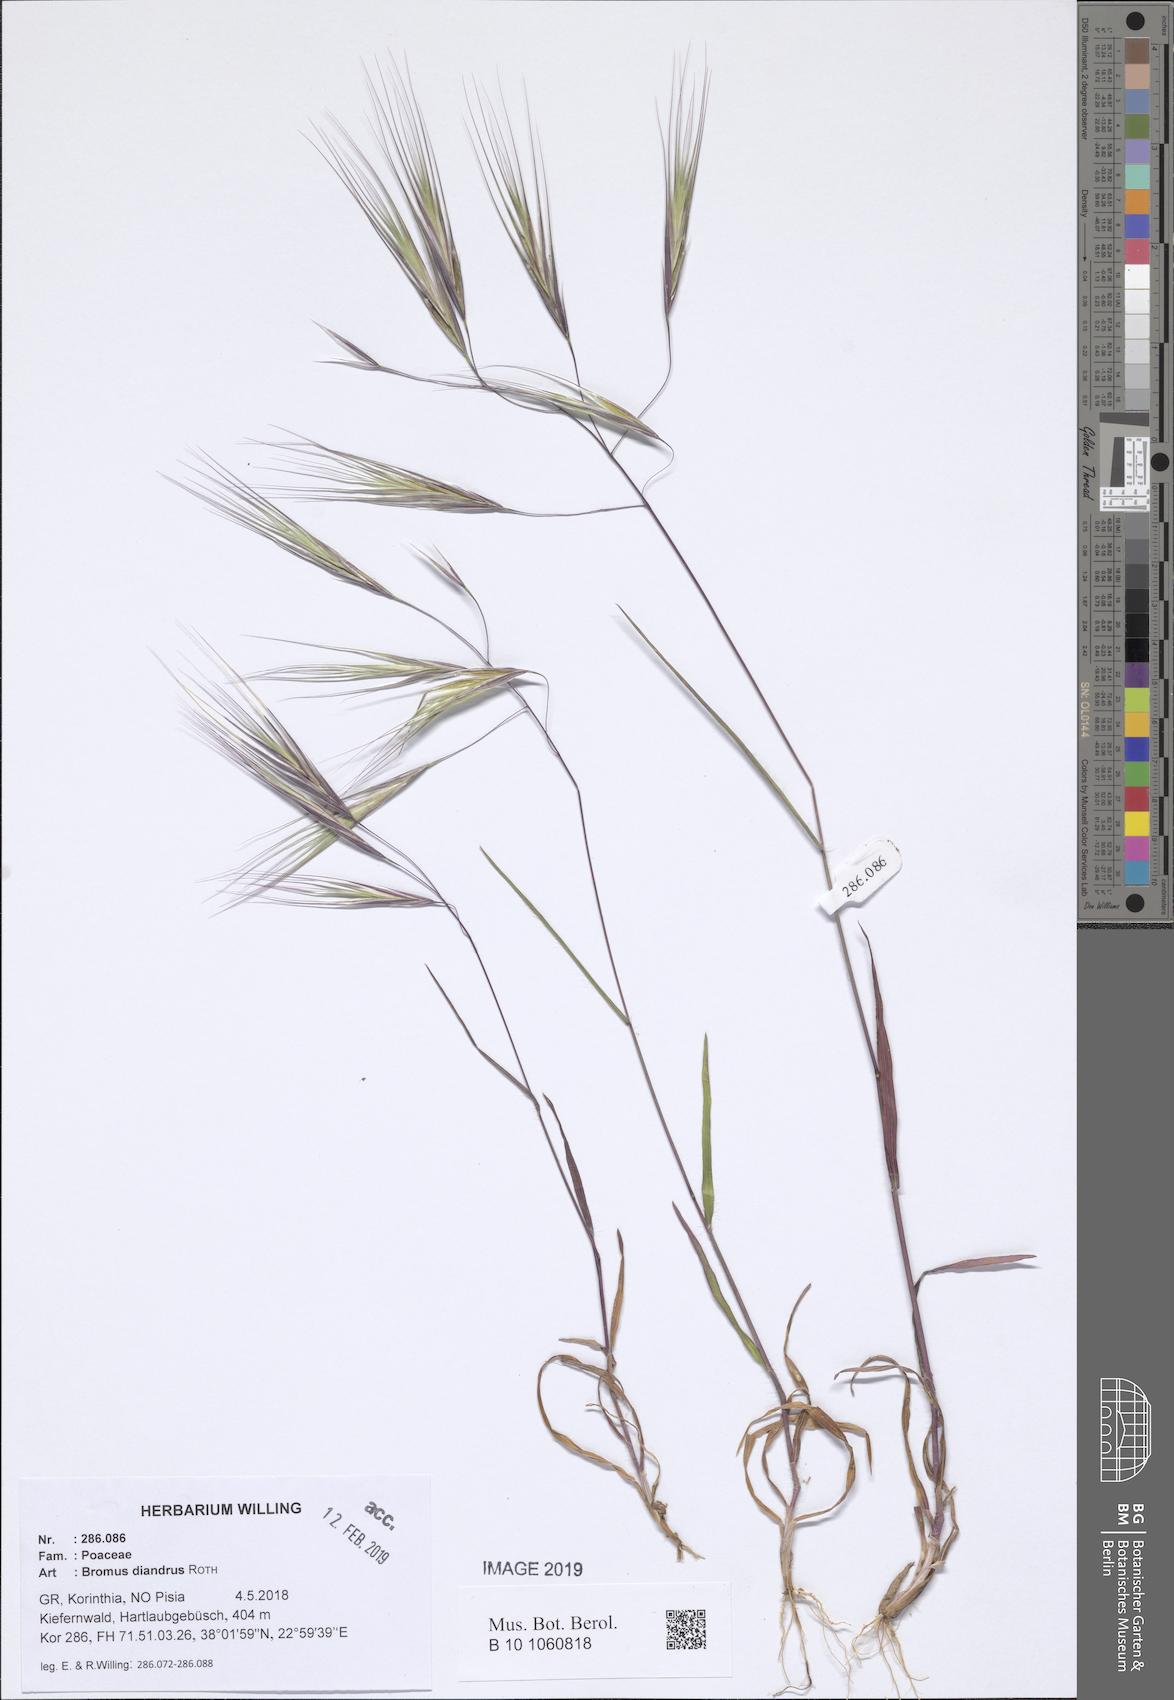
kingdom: Plantae
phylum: Tracheophyta
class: Liliopsida
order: Poales
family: Poaceae
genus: Bromus
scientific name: Bromus diandrus
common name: Ripgut brome
